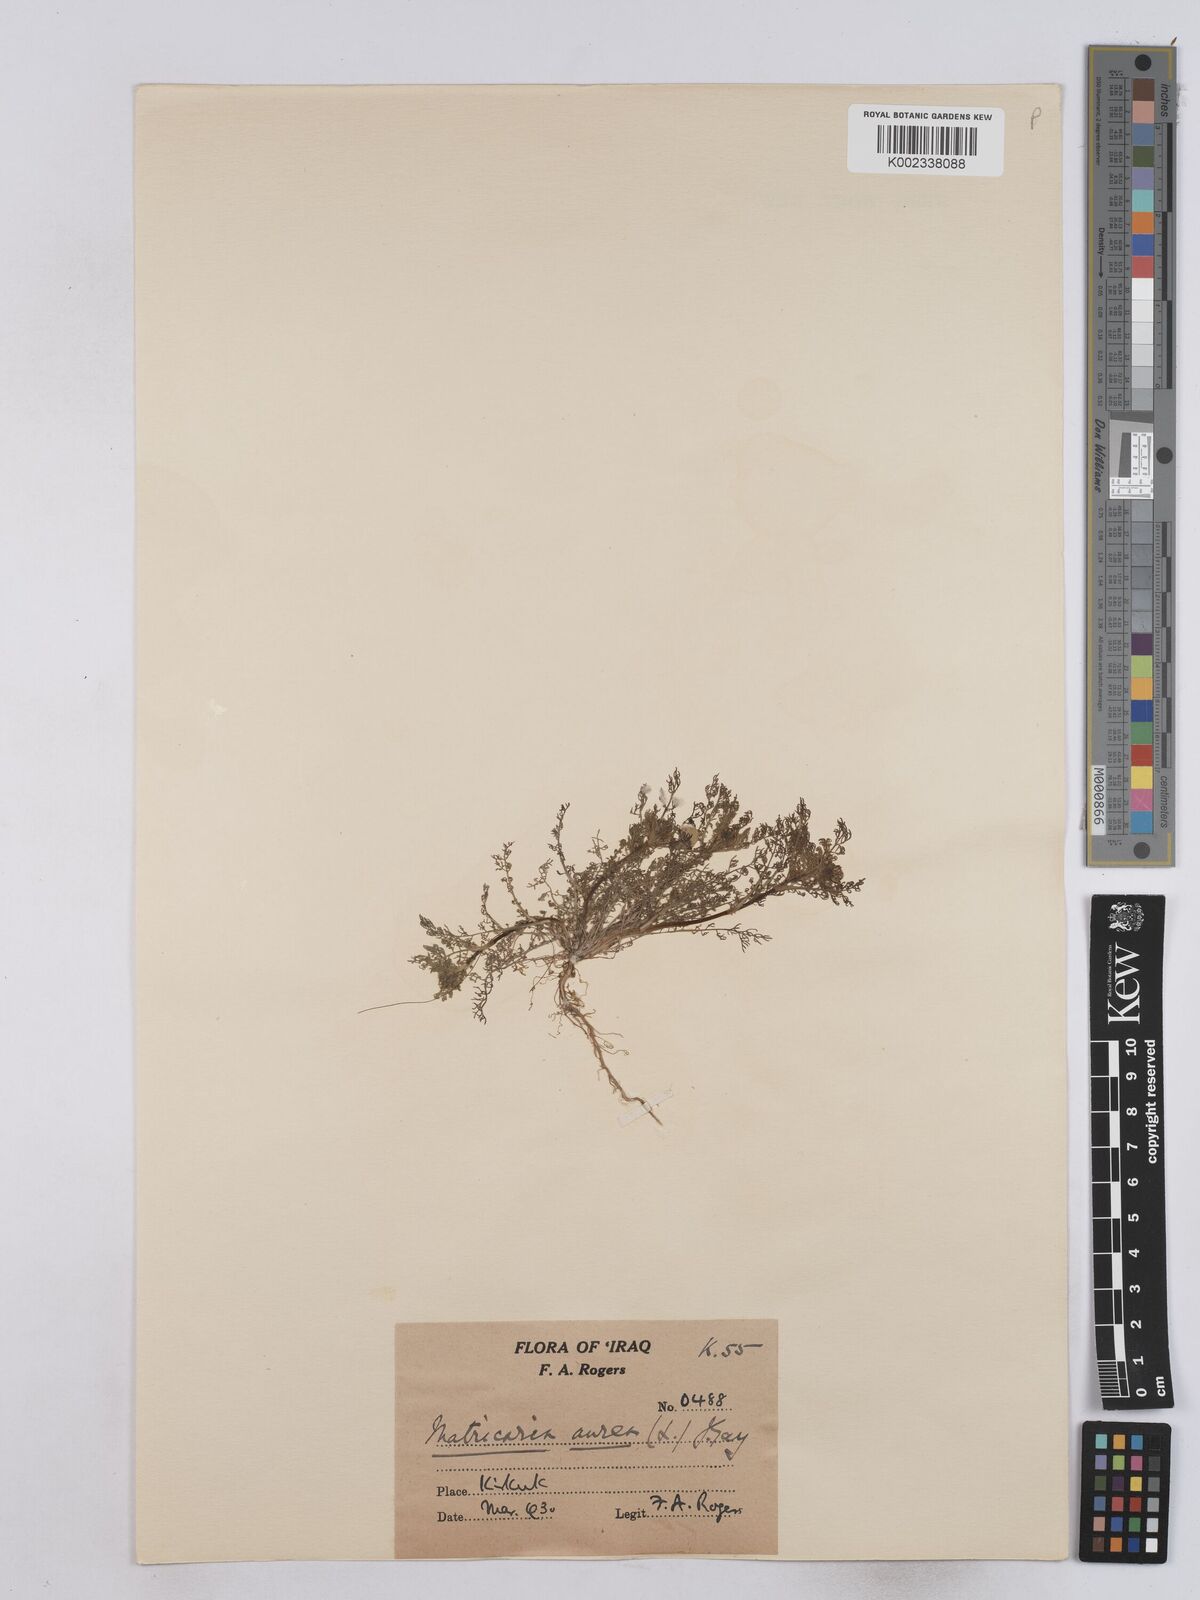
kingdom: Plantae
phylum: Tracheophyta
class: Magnoliopsida
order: Asterales
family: Asteraceae
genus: Matricaria
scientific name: Matricaria aurea
